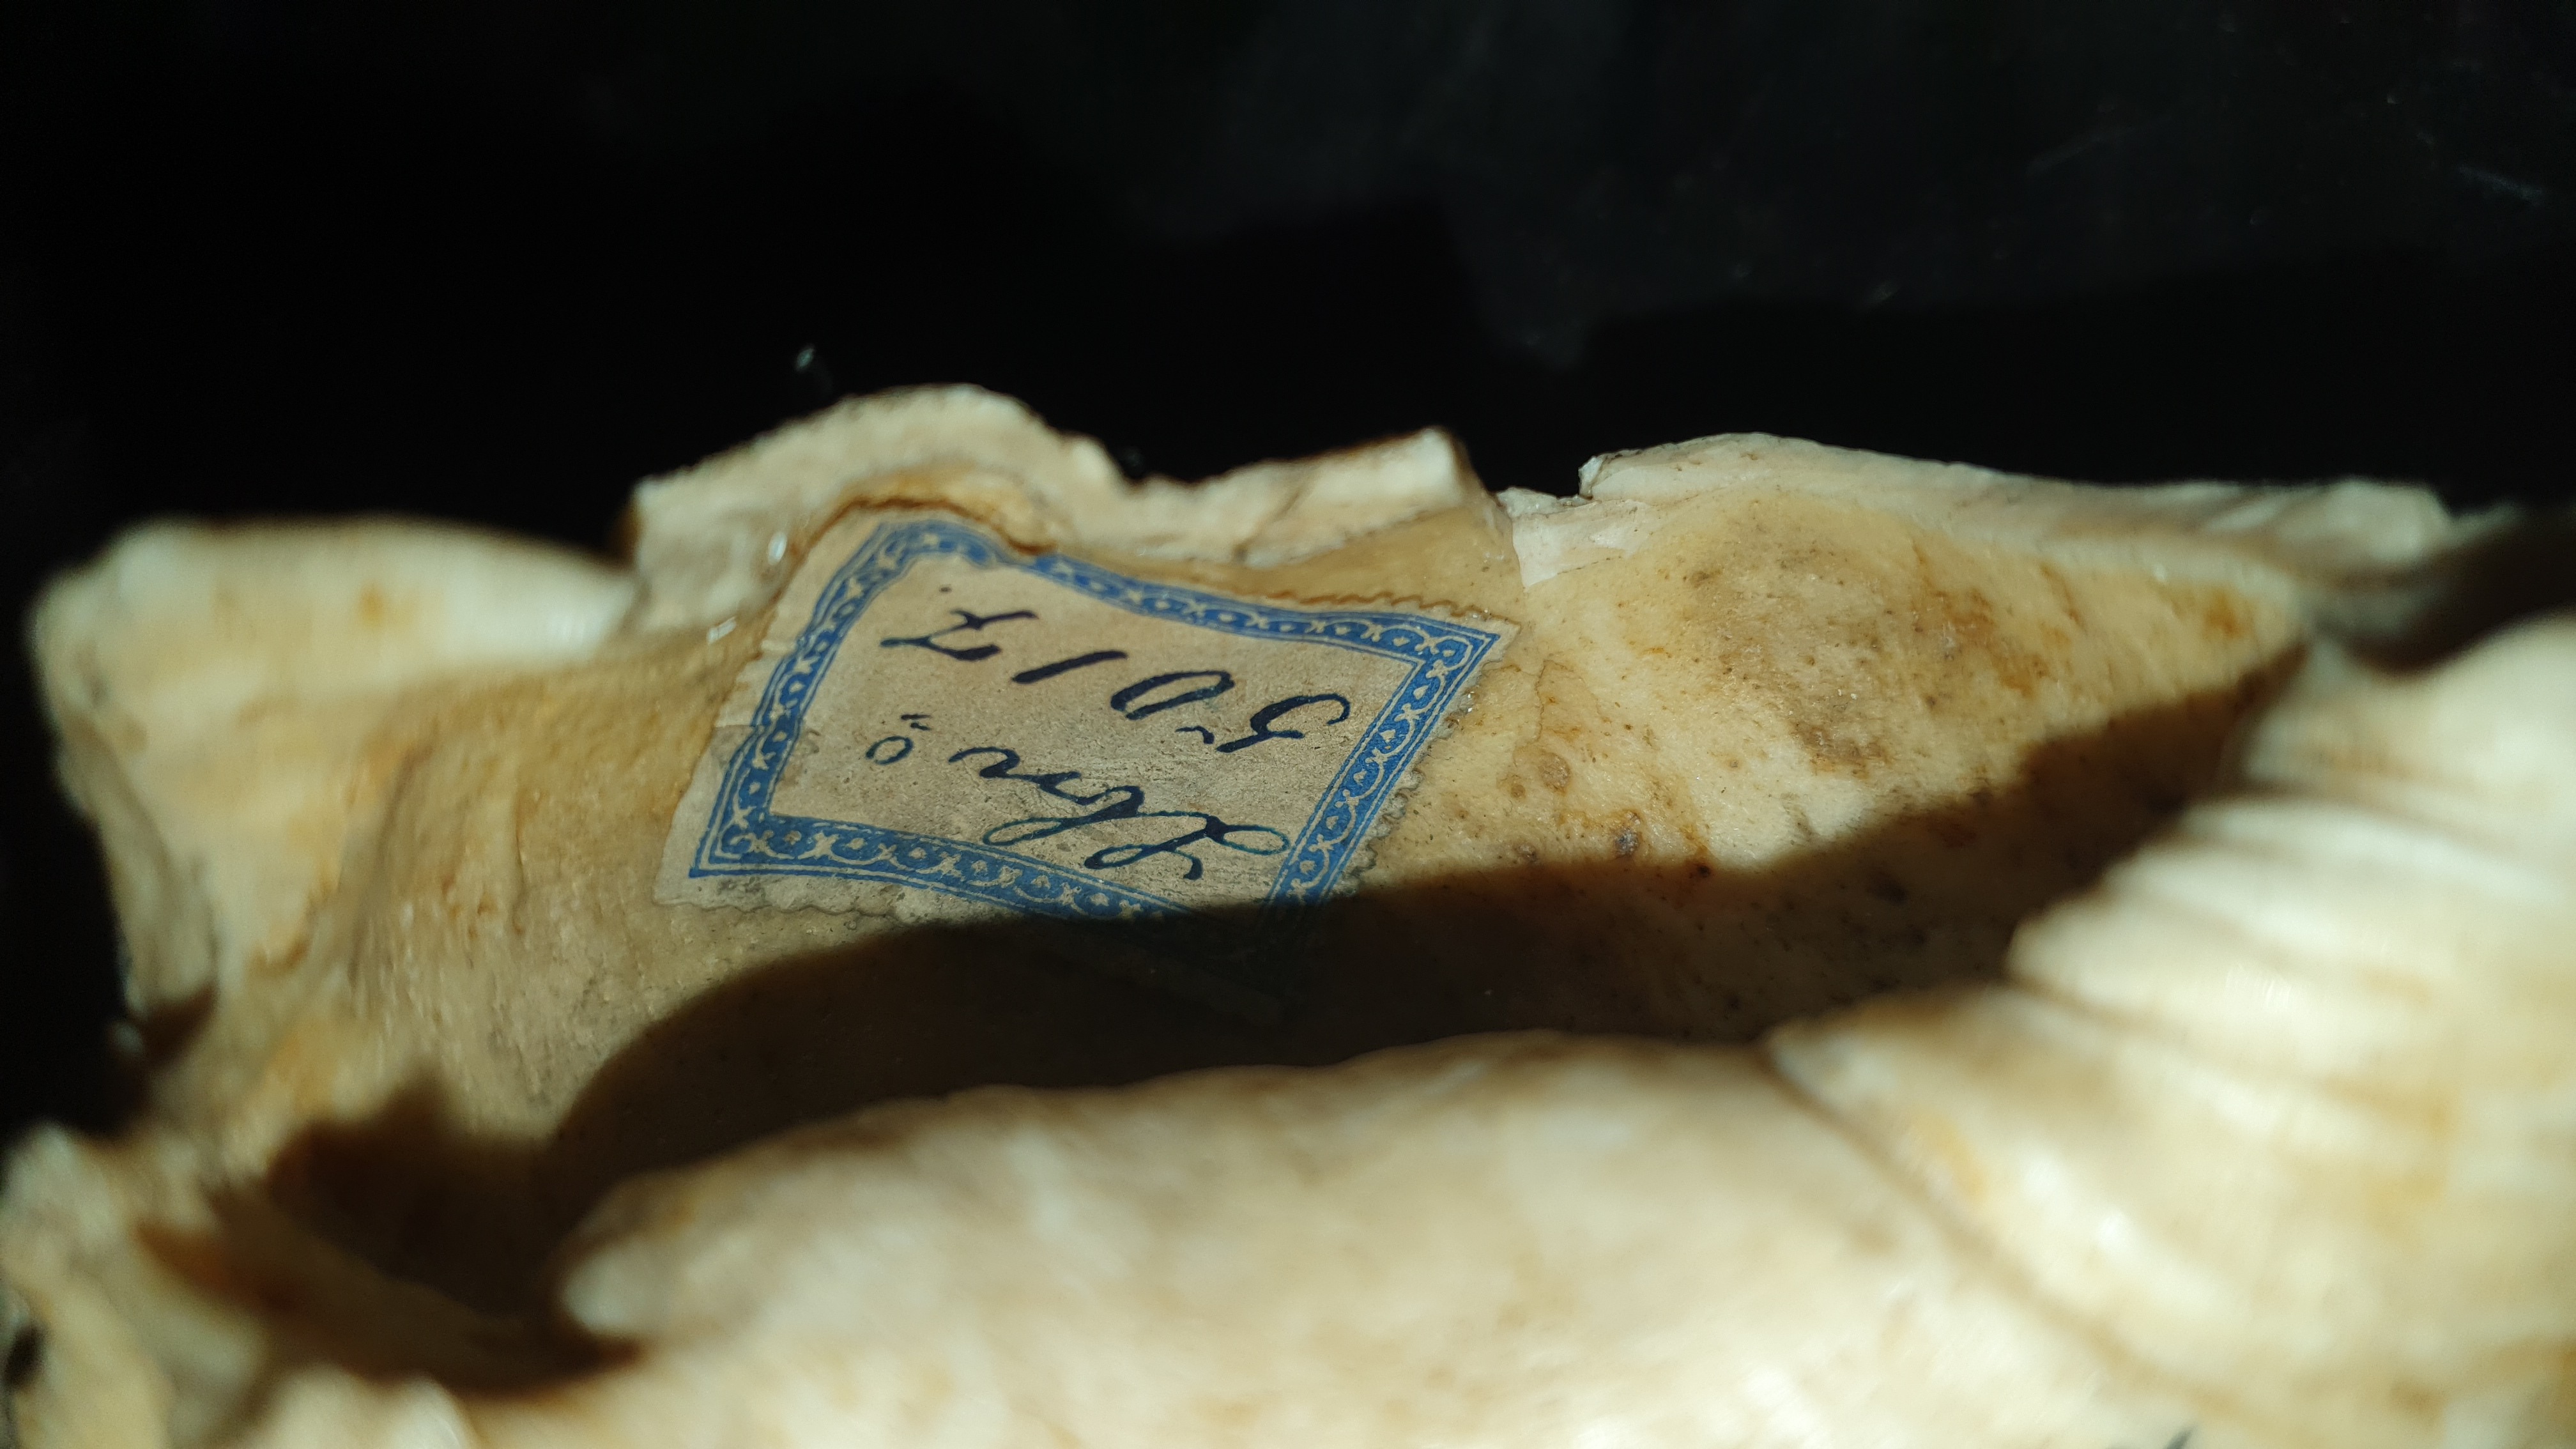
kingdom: Animalia
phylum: Chordata
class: Mammalia
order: Cetacea
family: Balaenopteridae
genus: Balaenoptera
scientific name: Balaenoptera acutorostrata
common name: Common minke whale
